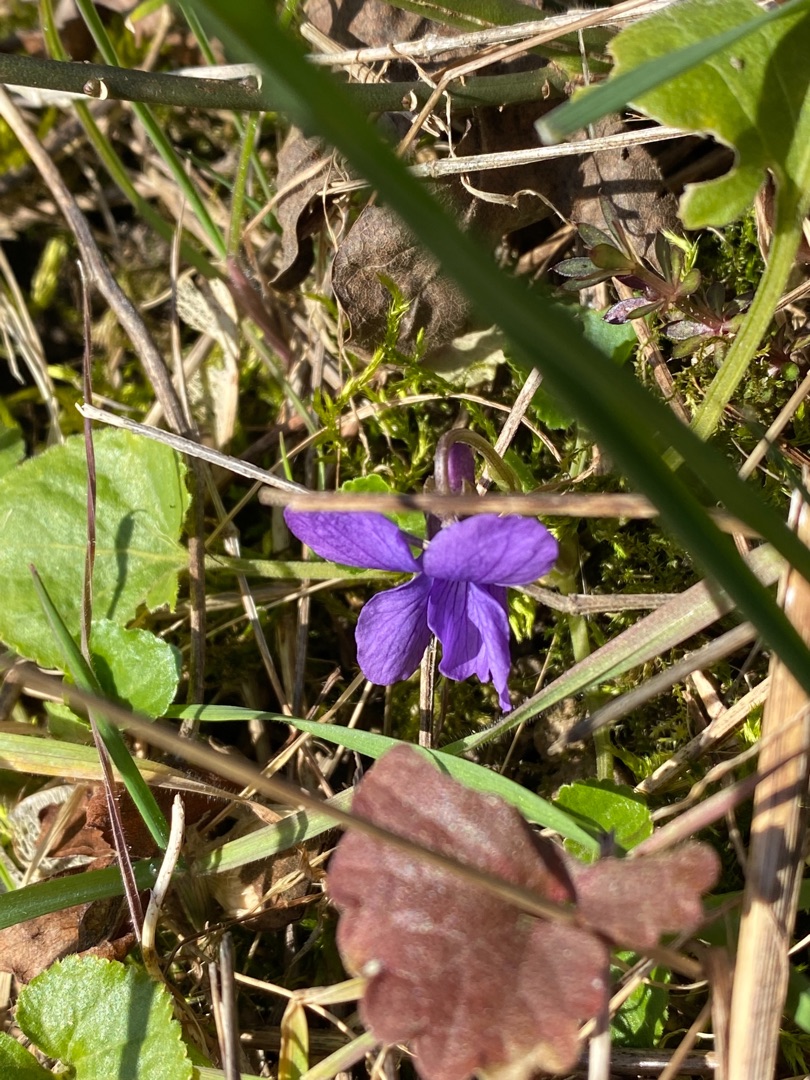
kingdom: Plantae
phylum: Tracheophyta
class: Magnoliopsida
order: Malpighiales
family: Violaceae
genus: Viola
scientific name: Viola odorata
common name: Marts-viol
